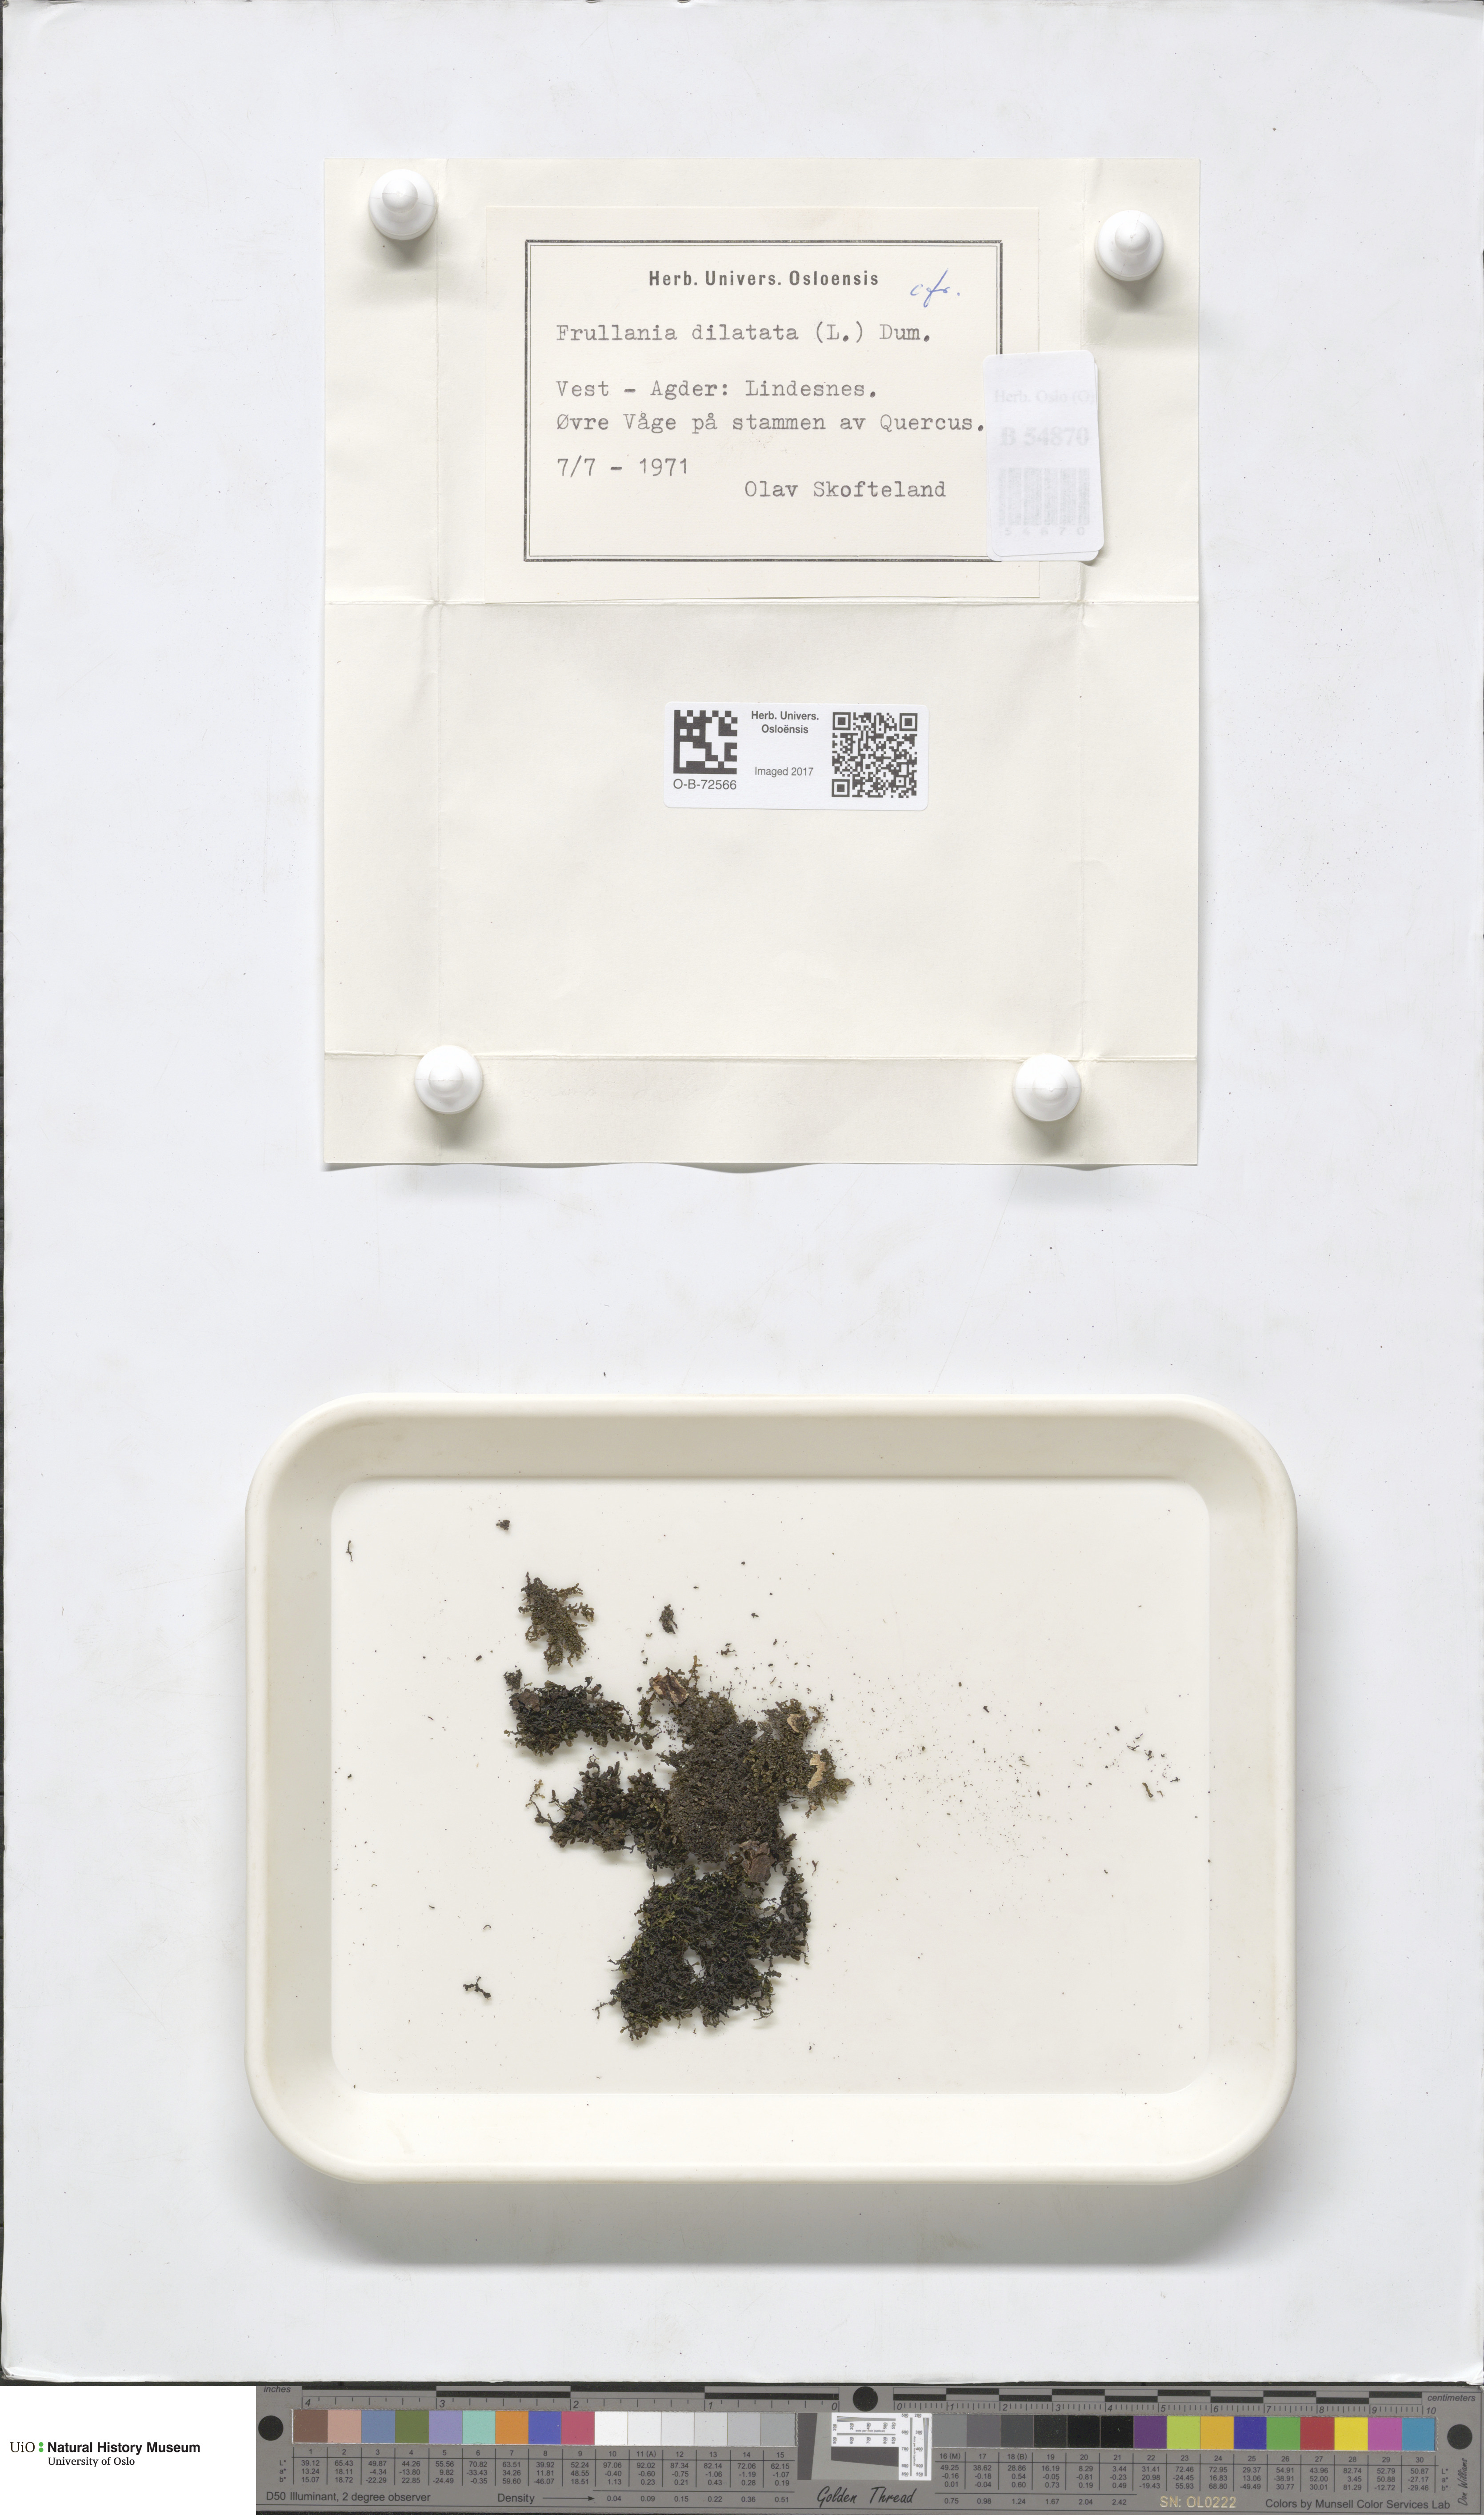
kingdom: Plantae
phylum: Marchantiophyta
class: Jungermanniopsida
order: Porellales
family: Frullaniaceae
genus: Frullania
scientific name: Frullania dilatata
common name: Dilated scalewort
